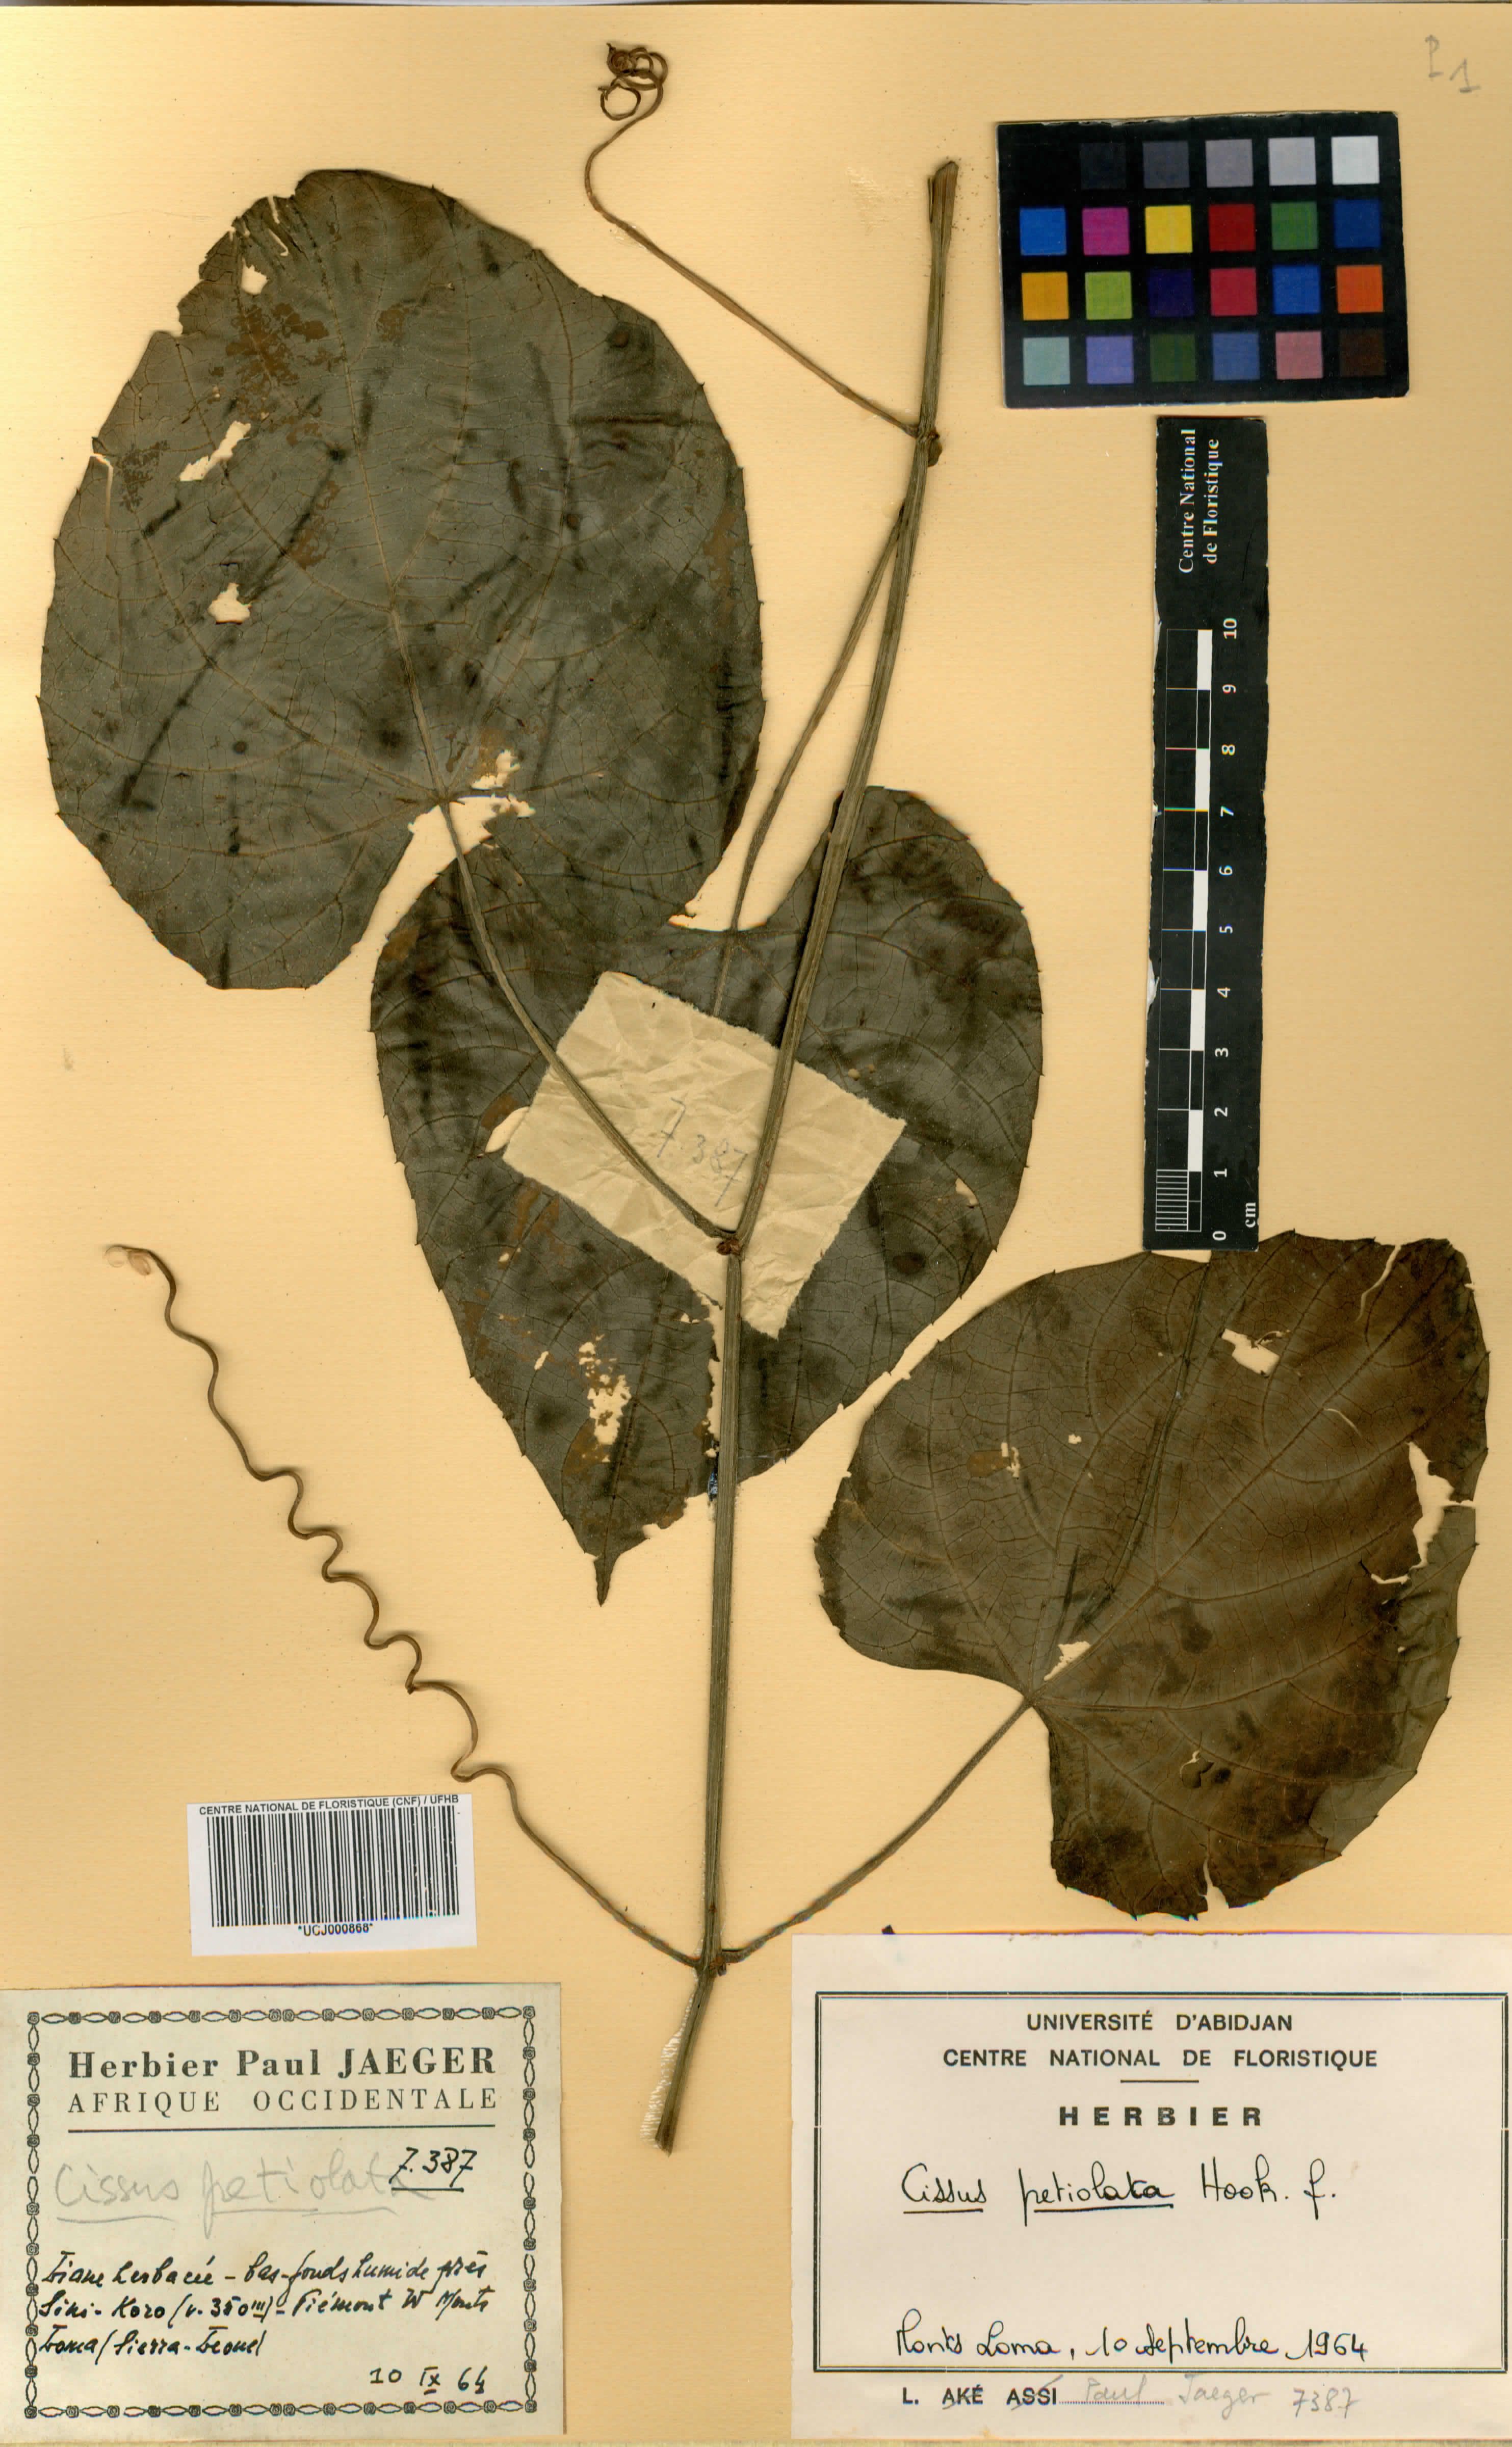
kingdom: Plantae
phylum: Tracheophyta
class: Magnoliopsida
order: Vitales
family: Vitaceae
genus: Cissus
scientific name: Cissus petiolata
